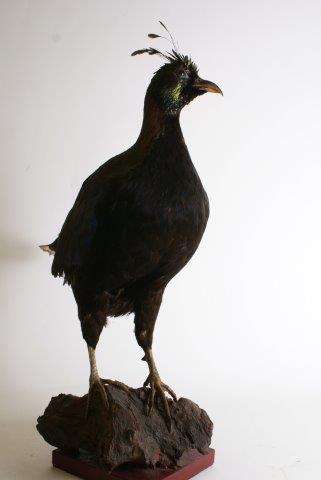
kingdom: Animalia
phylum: Chordata
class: Aves
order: Galliformes
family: Phasianidae
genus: Lophophorus
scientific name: Lophophorus impejanus
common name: Himalayan monal
